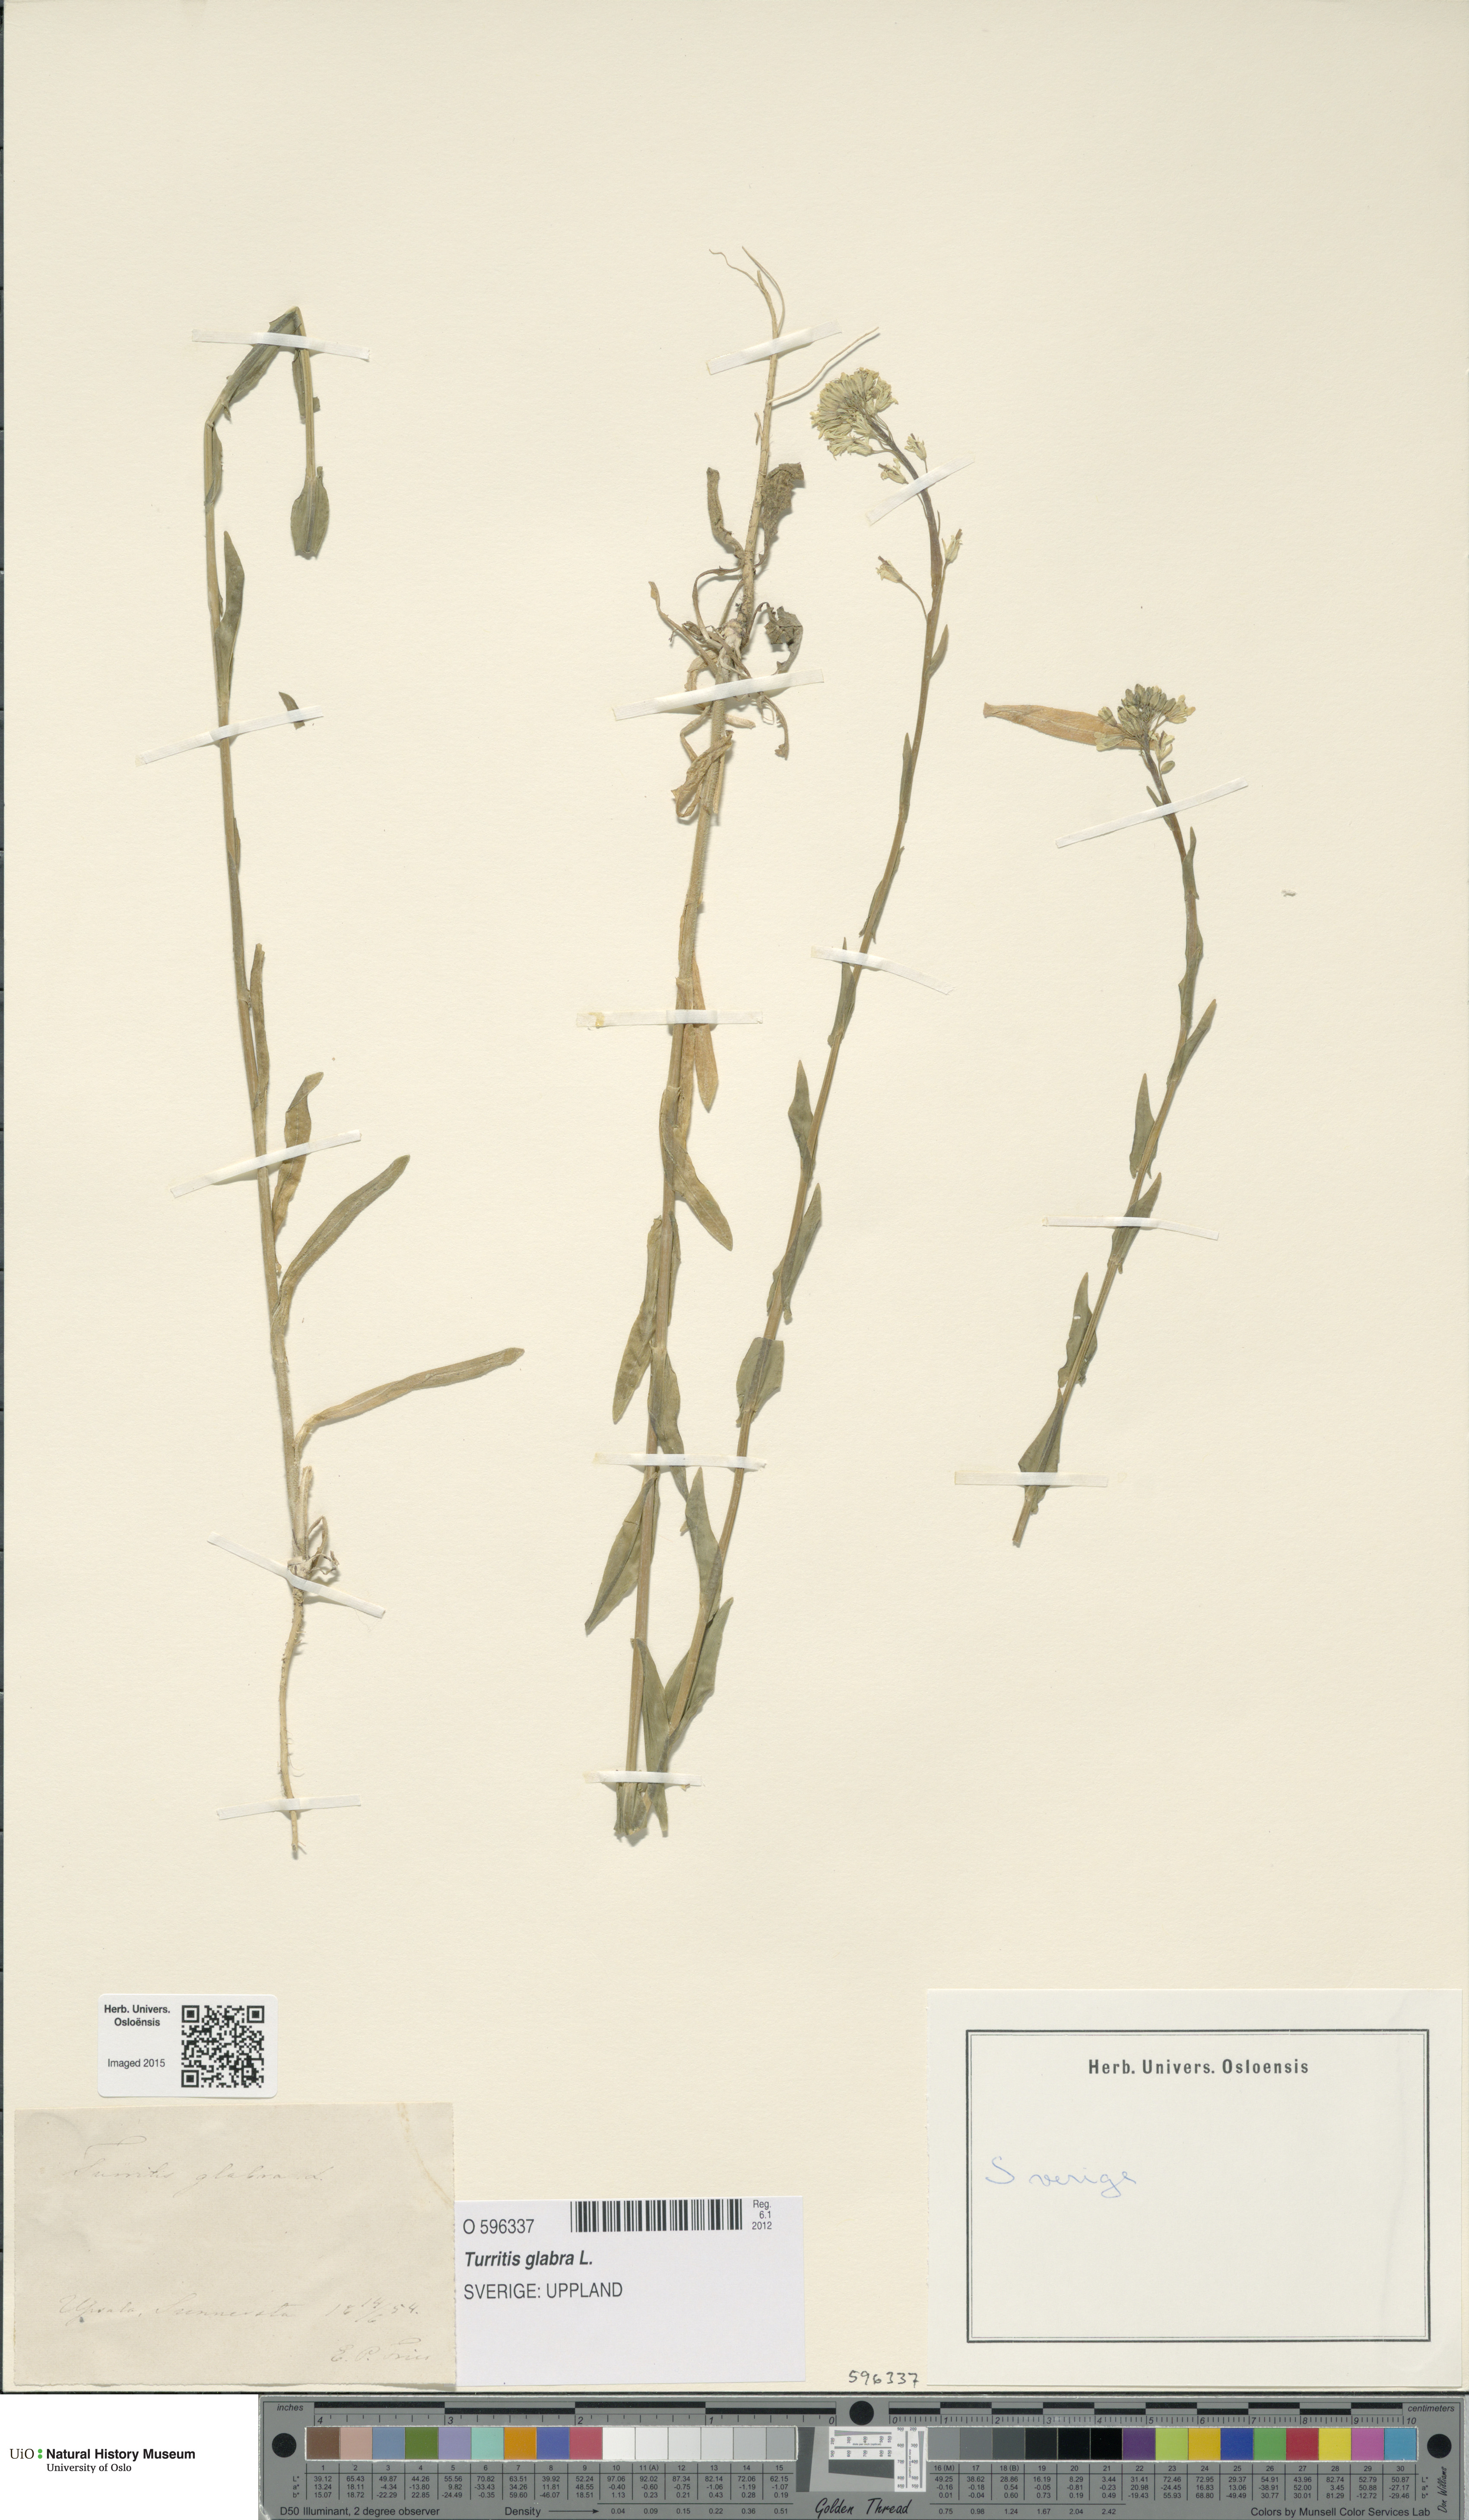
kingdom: Plantae
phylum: Tracheophyta
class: Magnoliopsida
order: Brassicales
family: Brassicaceae
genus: Turritis
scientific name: Turritis glabra
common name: Tower rockcress
